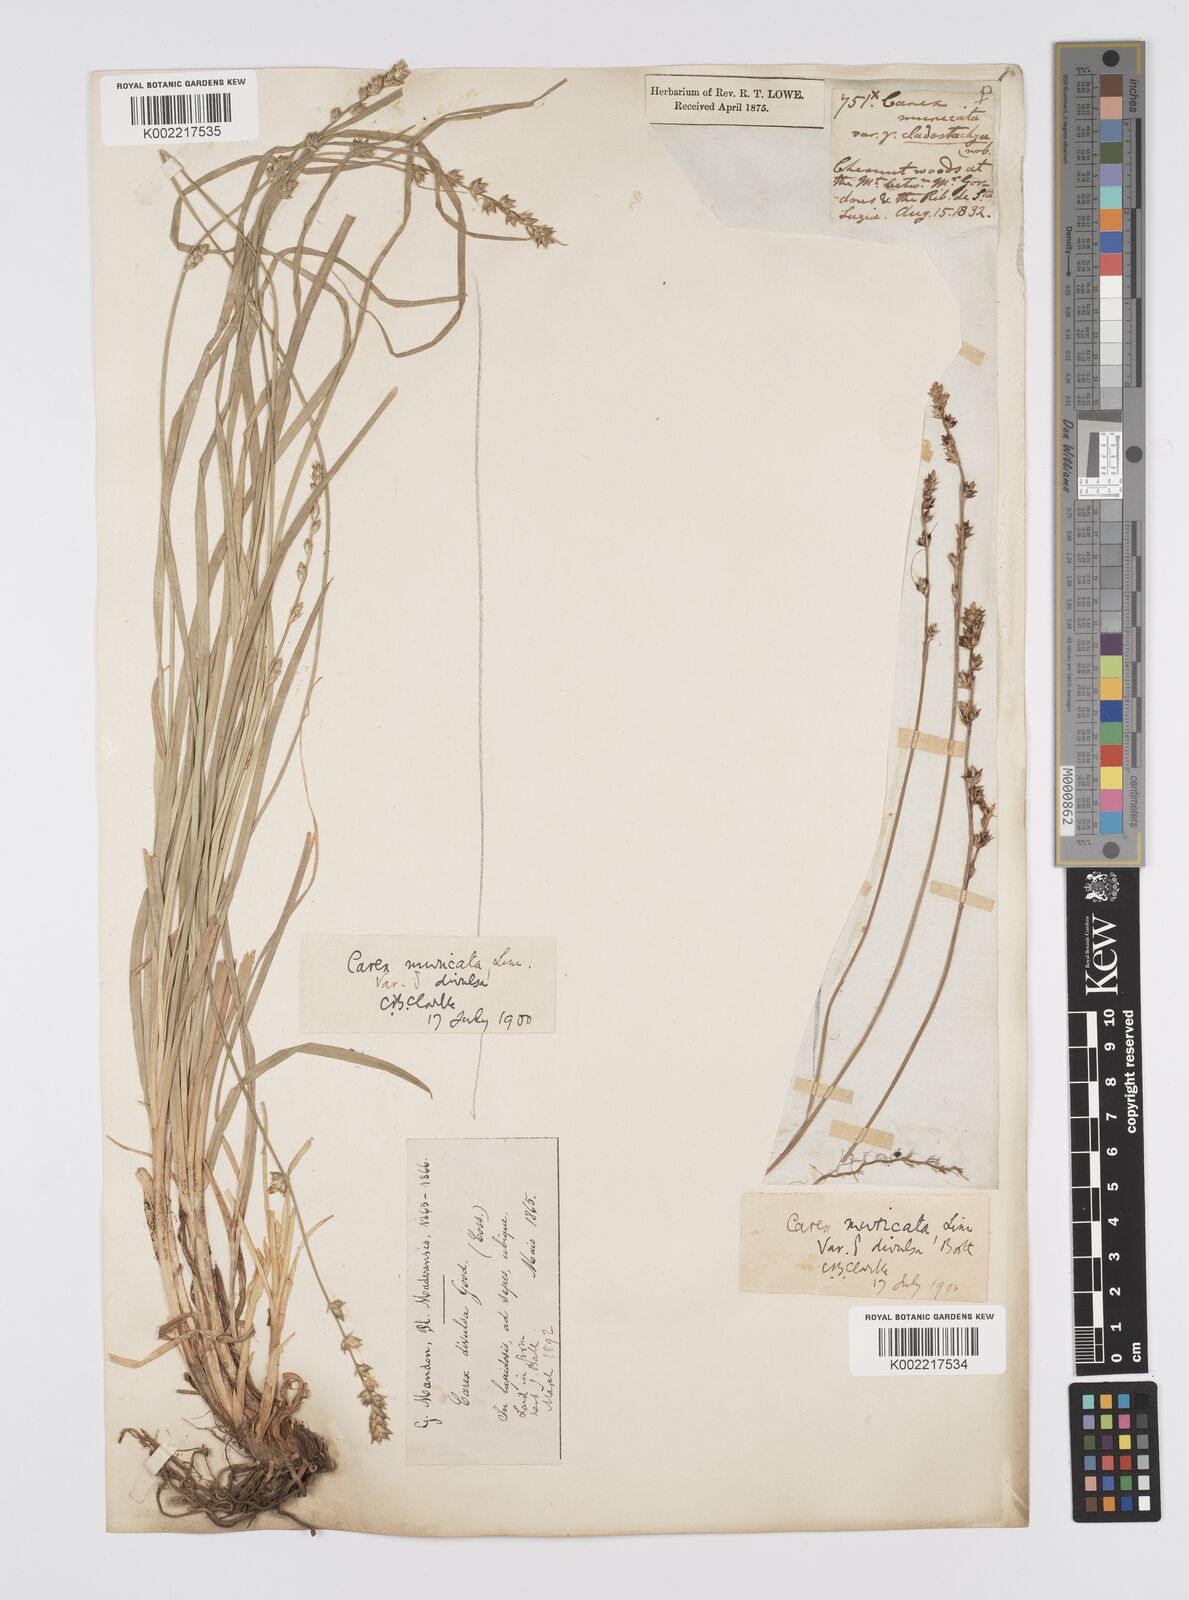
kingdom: Plantae
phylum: Tracheophyta
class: Liliopsida
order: Poales
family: Cyperaceae
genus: Carex
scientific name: Carex divulsa
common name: Grassland sedge
